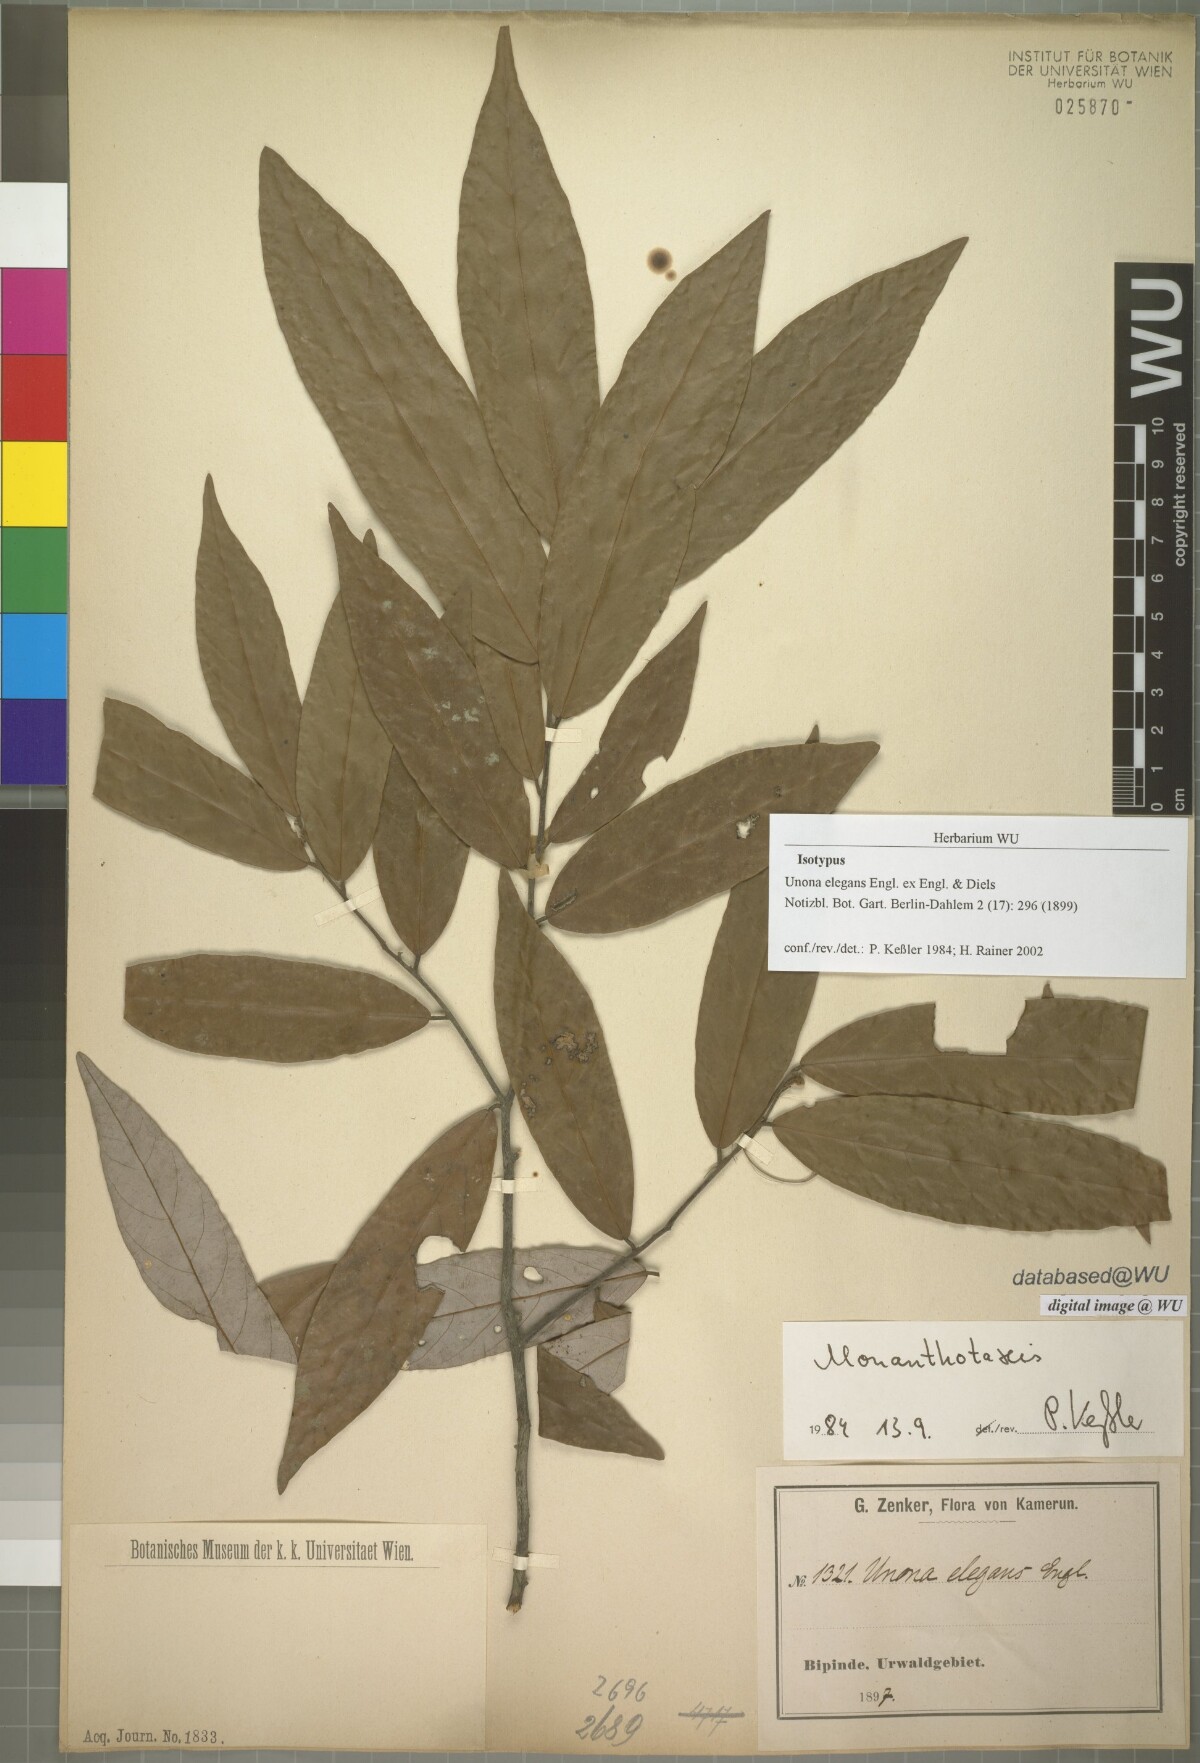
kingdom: Plantae
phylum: Tracheophyta
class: Magnoliopsida
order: Magnoliales
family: Annonaceae
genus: Monanthotaxis
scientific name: Monanthotaxis elegans
